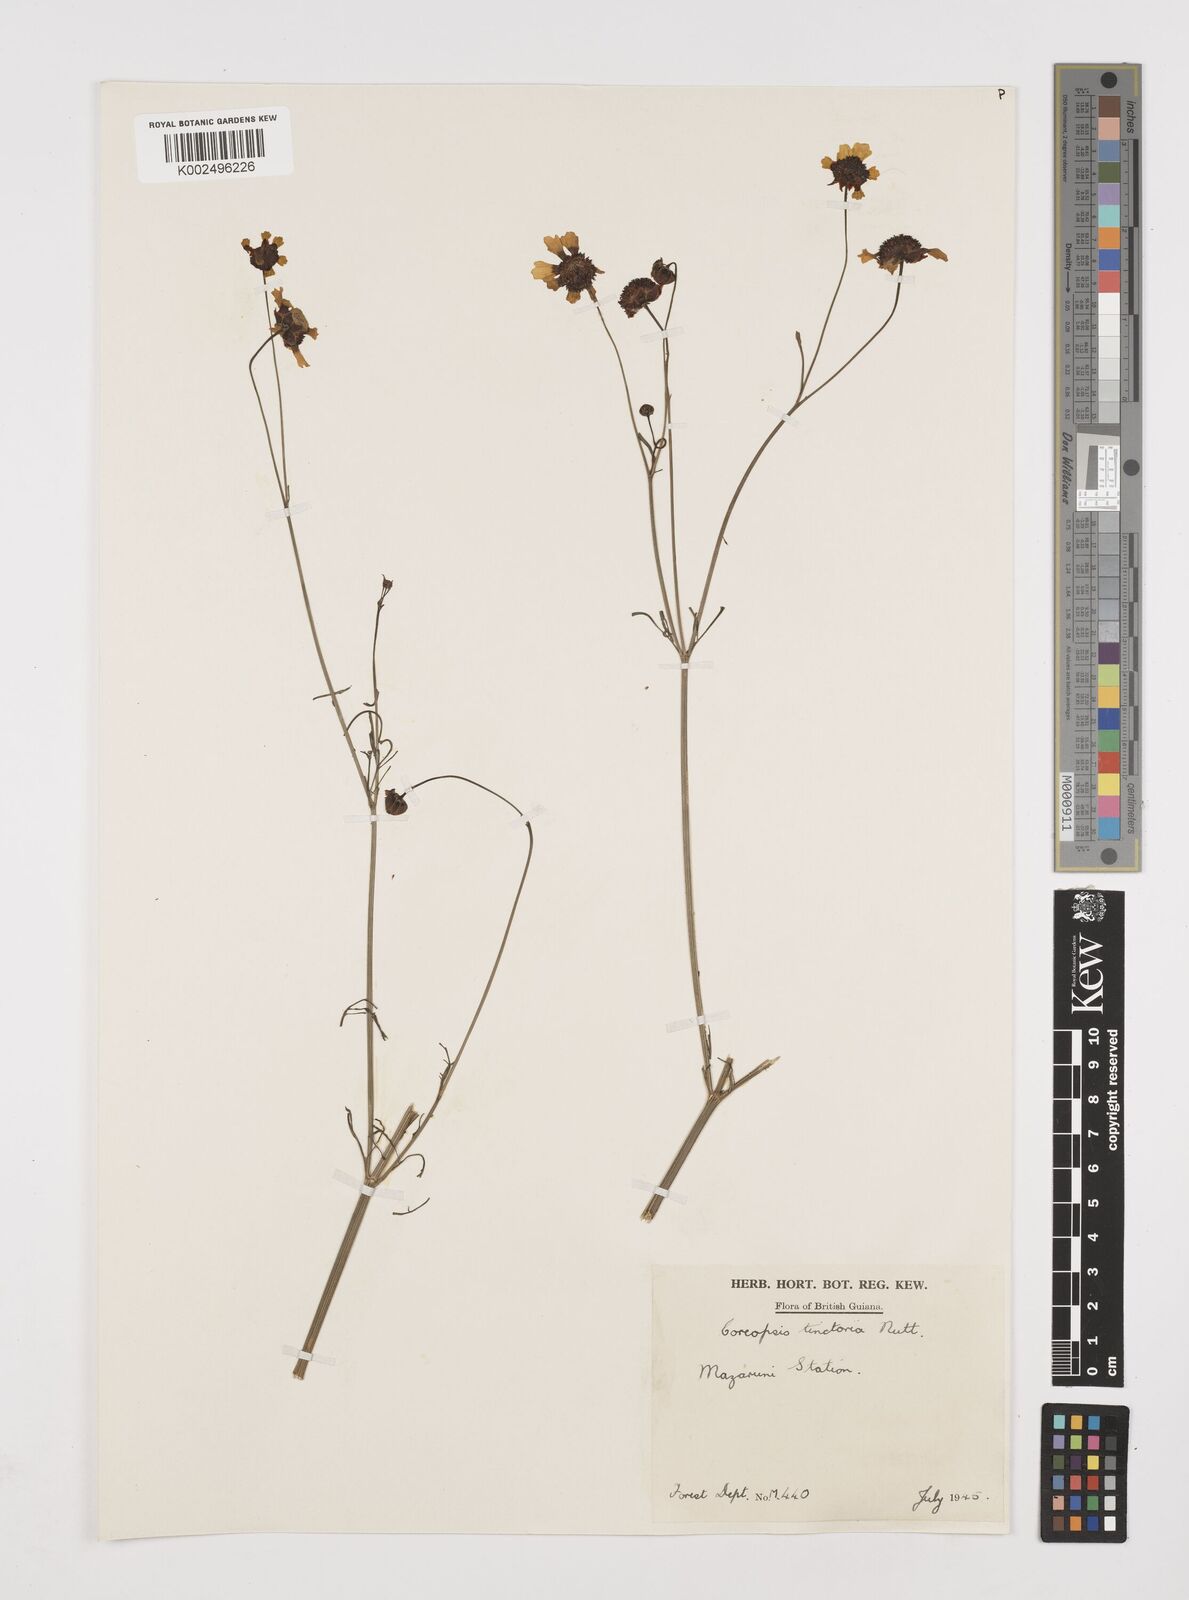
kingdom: Plantae
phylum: Tracheophyta
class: Magnoliopsida
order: Asterales
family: Asteraceae
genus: Coreopsis
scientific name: Coreopsis tinctoria
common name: Garden tickseed
